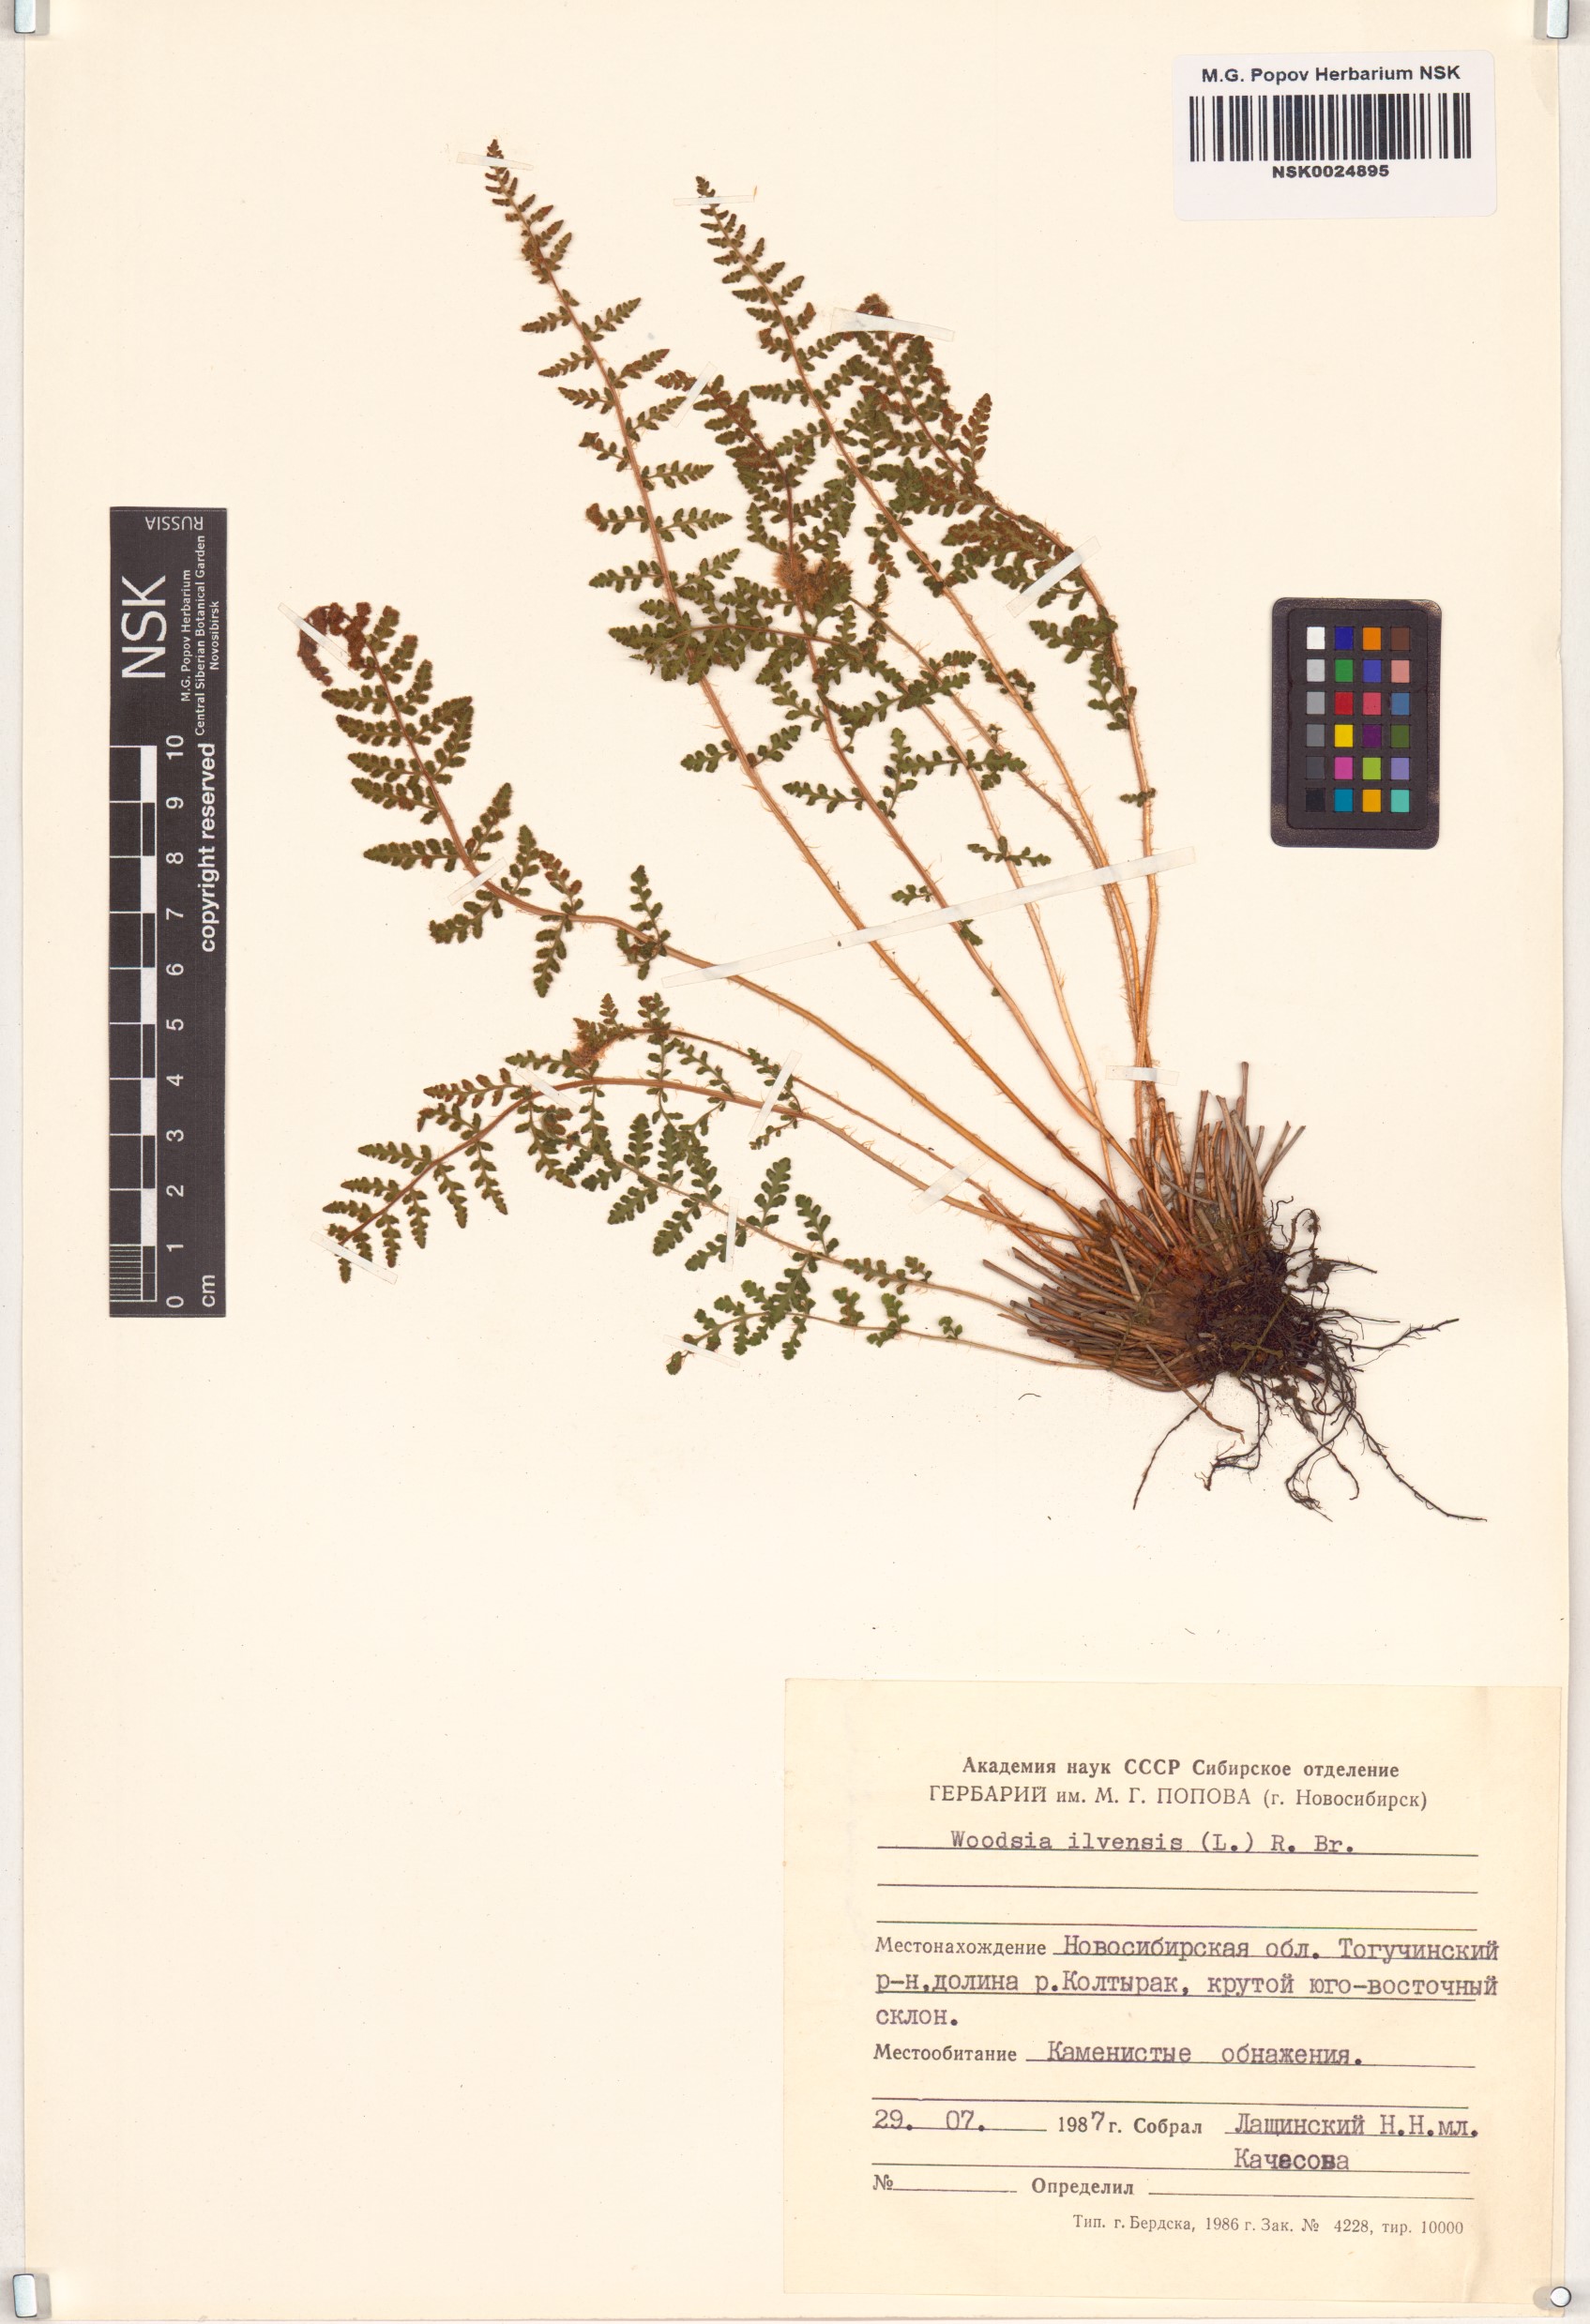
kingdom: Plantae
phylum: Tracheophyta
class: Polypodiopsida
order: Polypodiales
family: Woodsiaceae
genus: Woodsia
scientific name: Woodsia ilvensis
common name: Fragrant woodsia
